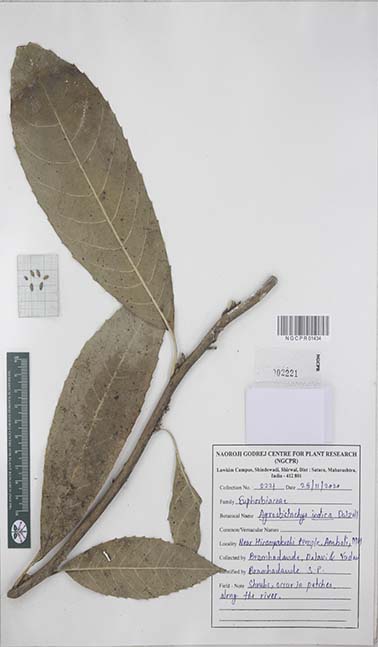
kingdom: Plantae
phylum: Tracheophyta
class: Magnoliopsida
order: Malpighiales
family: Euphorbiaceae
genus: Agrostistachys
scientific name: Agrostistachys indica
